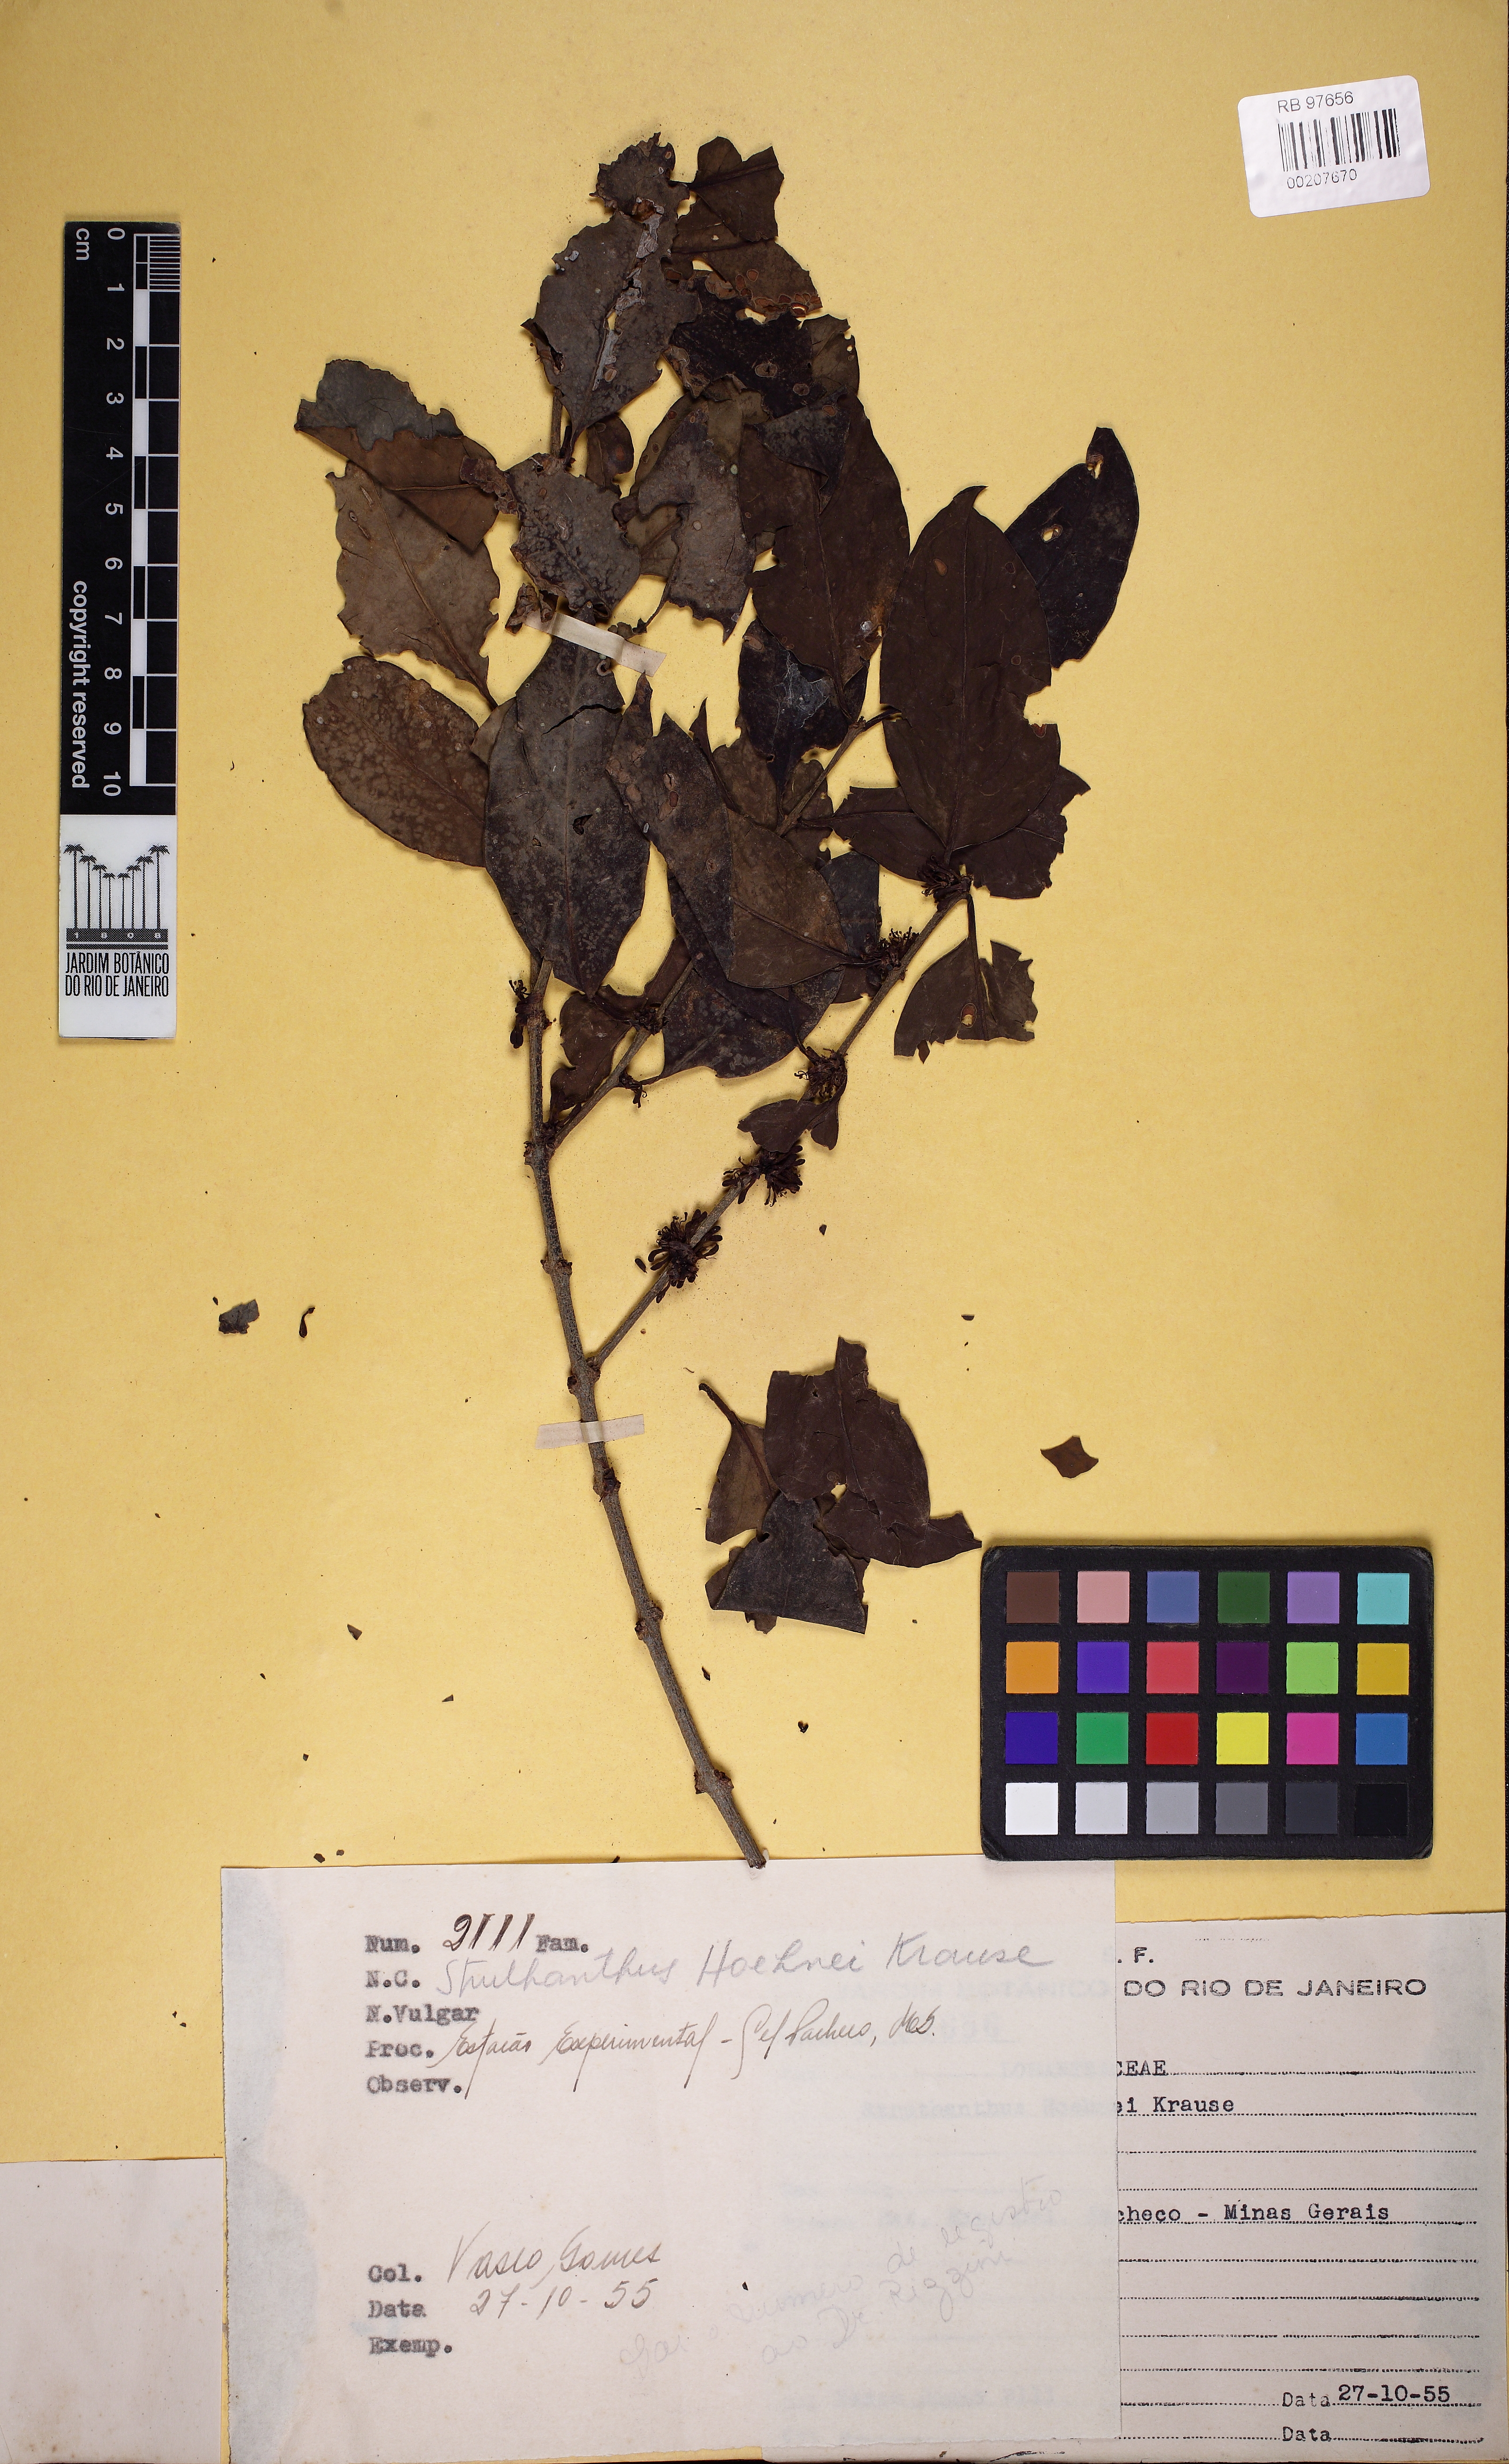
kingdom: Plantae
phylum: Tracheophyta
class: Magnoliopsida
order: Santalales
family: Loranthaceae
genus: Struthanthus
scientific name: Struthanthus taubatensis
